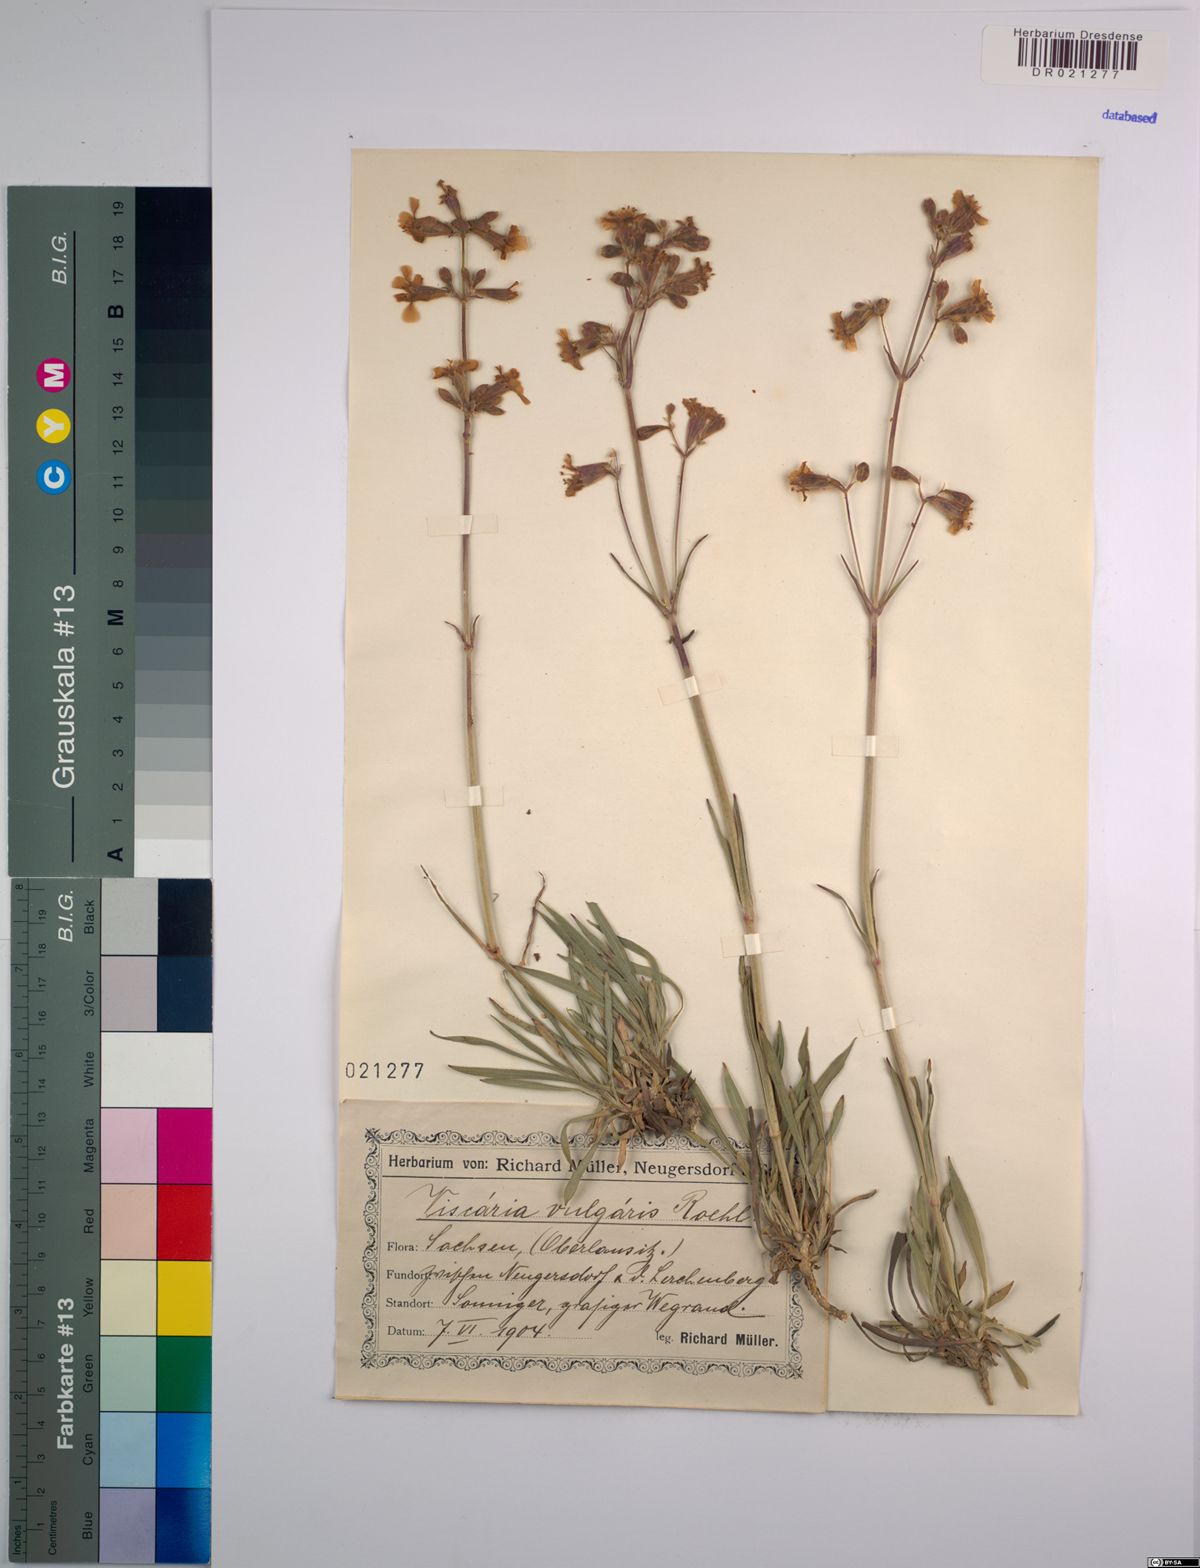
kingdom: Plantae
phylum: Tracheophyta
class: Magnoliopsida
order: Caryophyllales
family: Caryophyllaceae
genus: Viscaria
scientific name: Viscaria vulgaris
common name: Clammy campion
